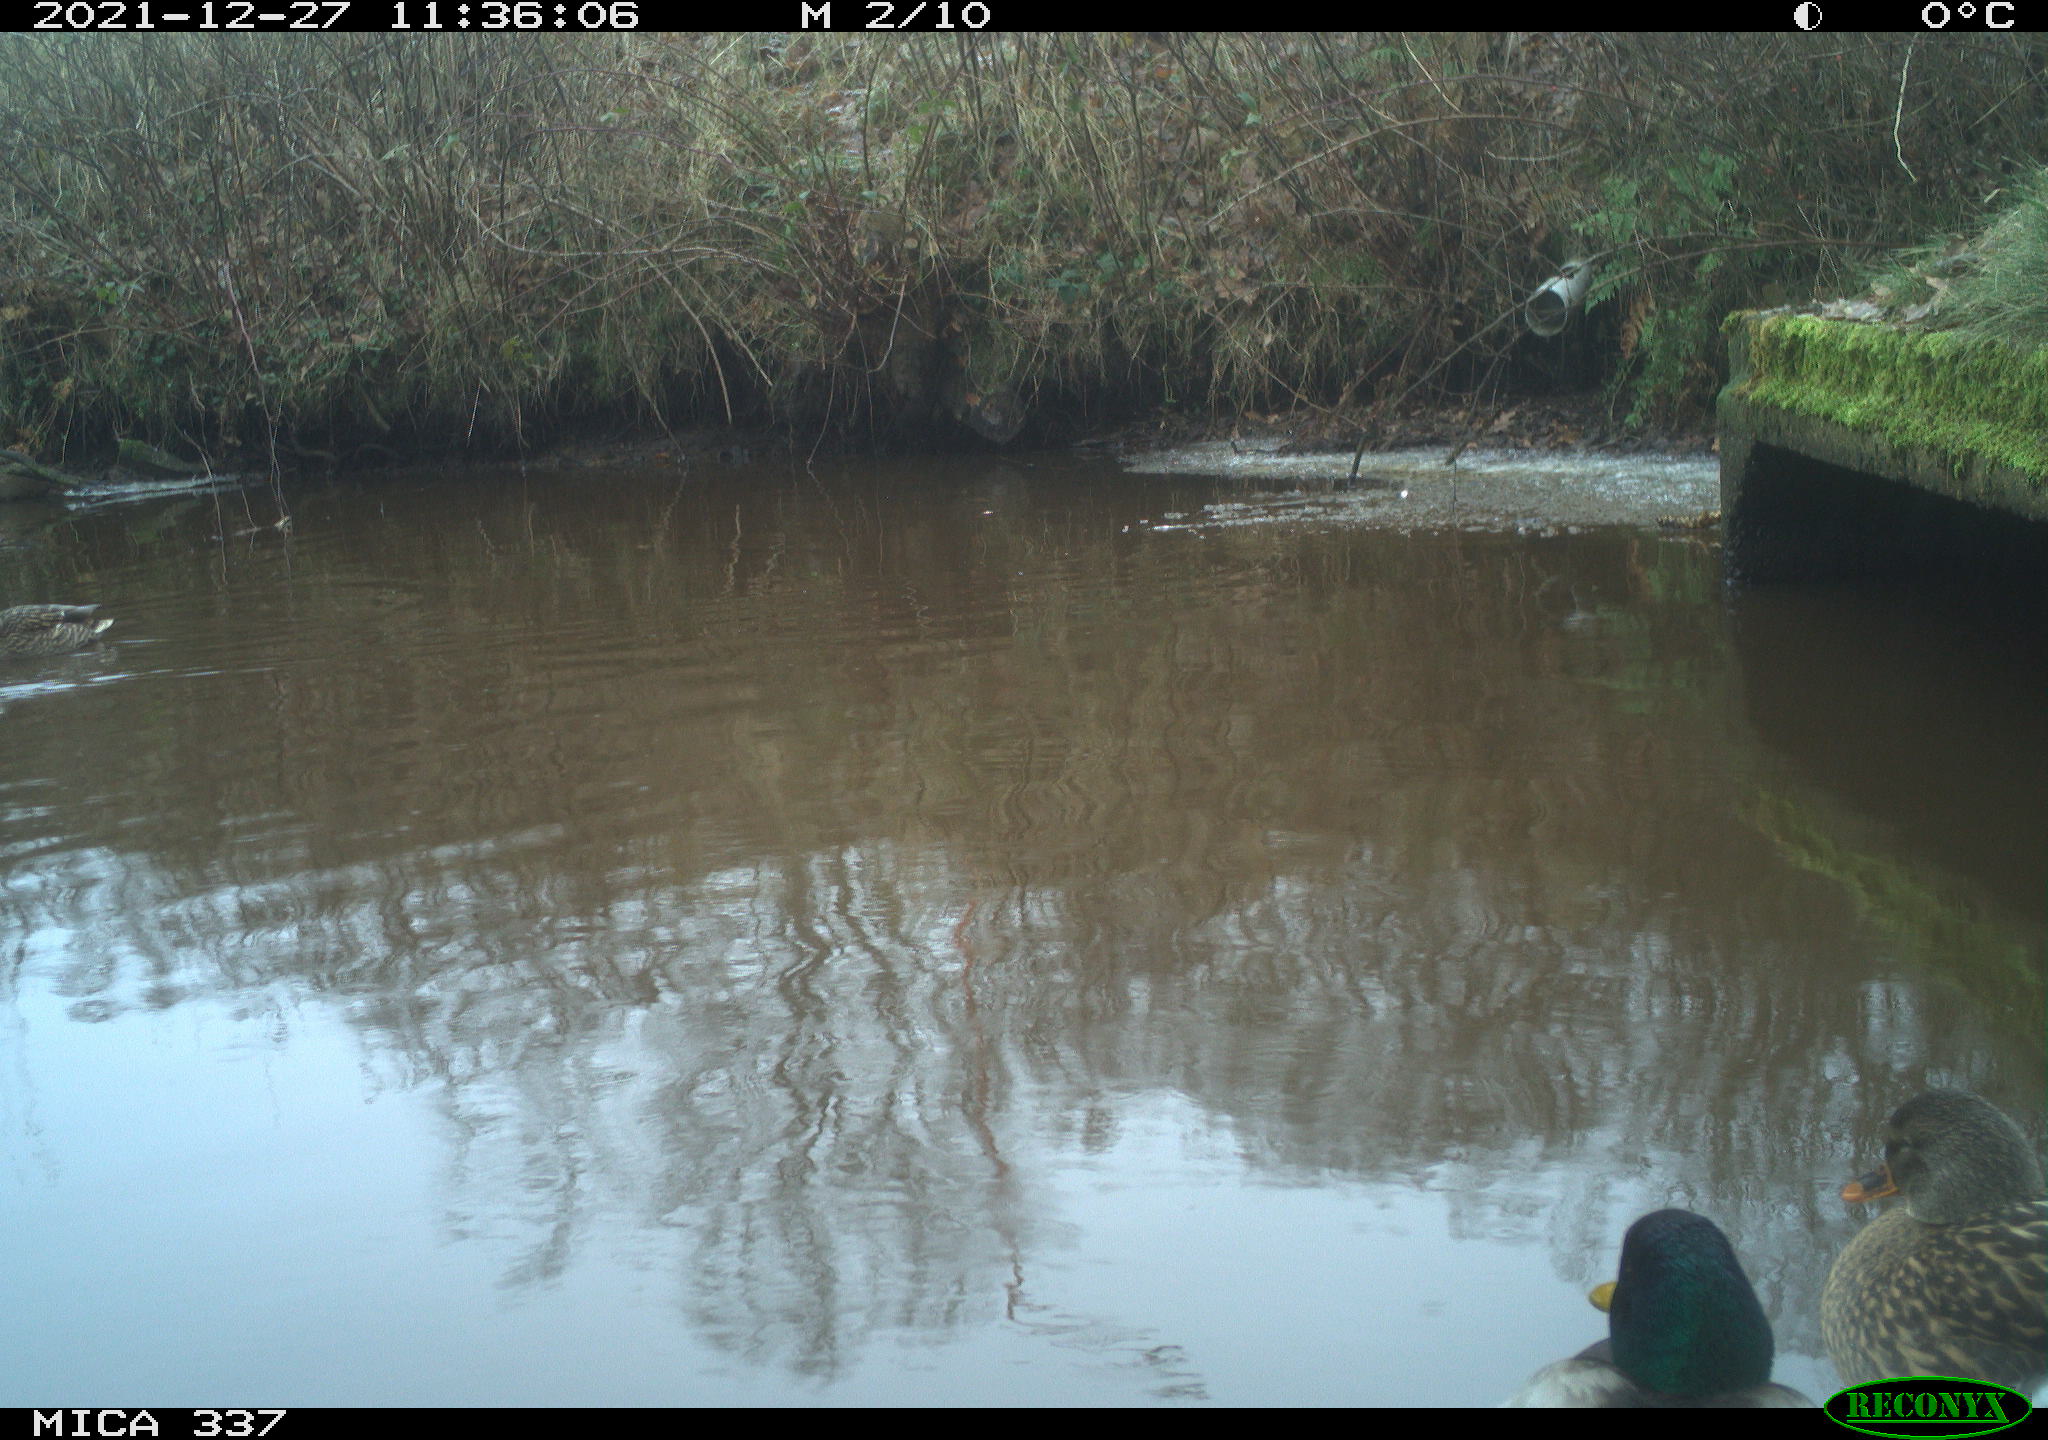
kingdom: Animalia
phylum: Chordata
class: Aves
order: Anseriformes
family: Anatidae
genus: Anas
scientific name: Anas platyrhynchos
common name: Mallard
